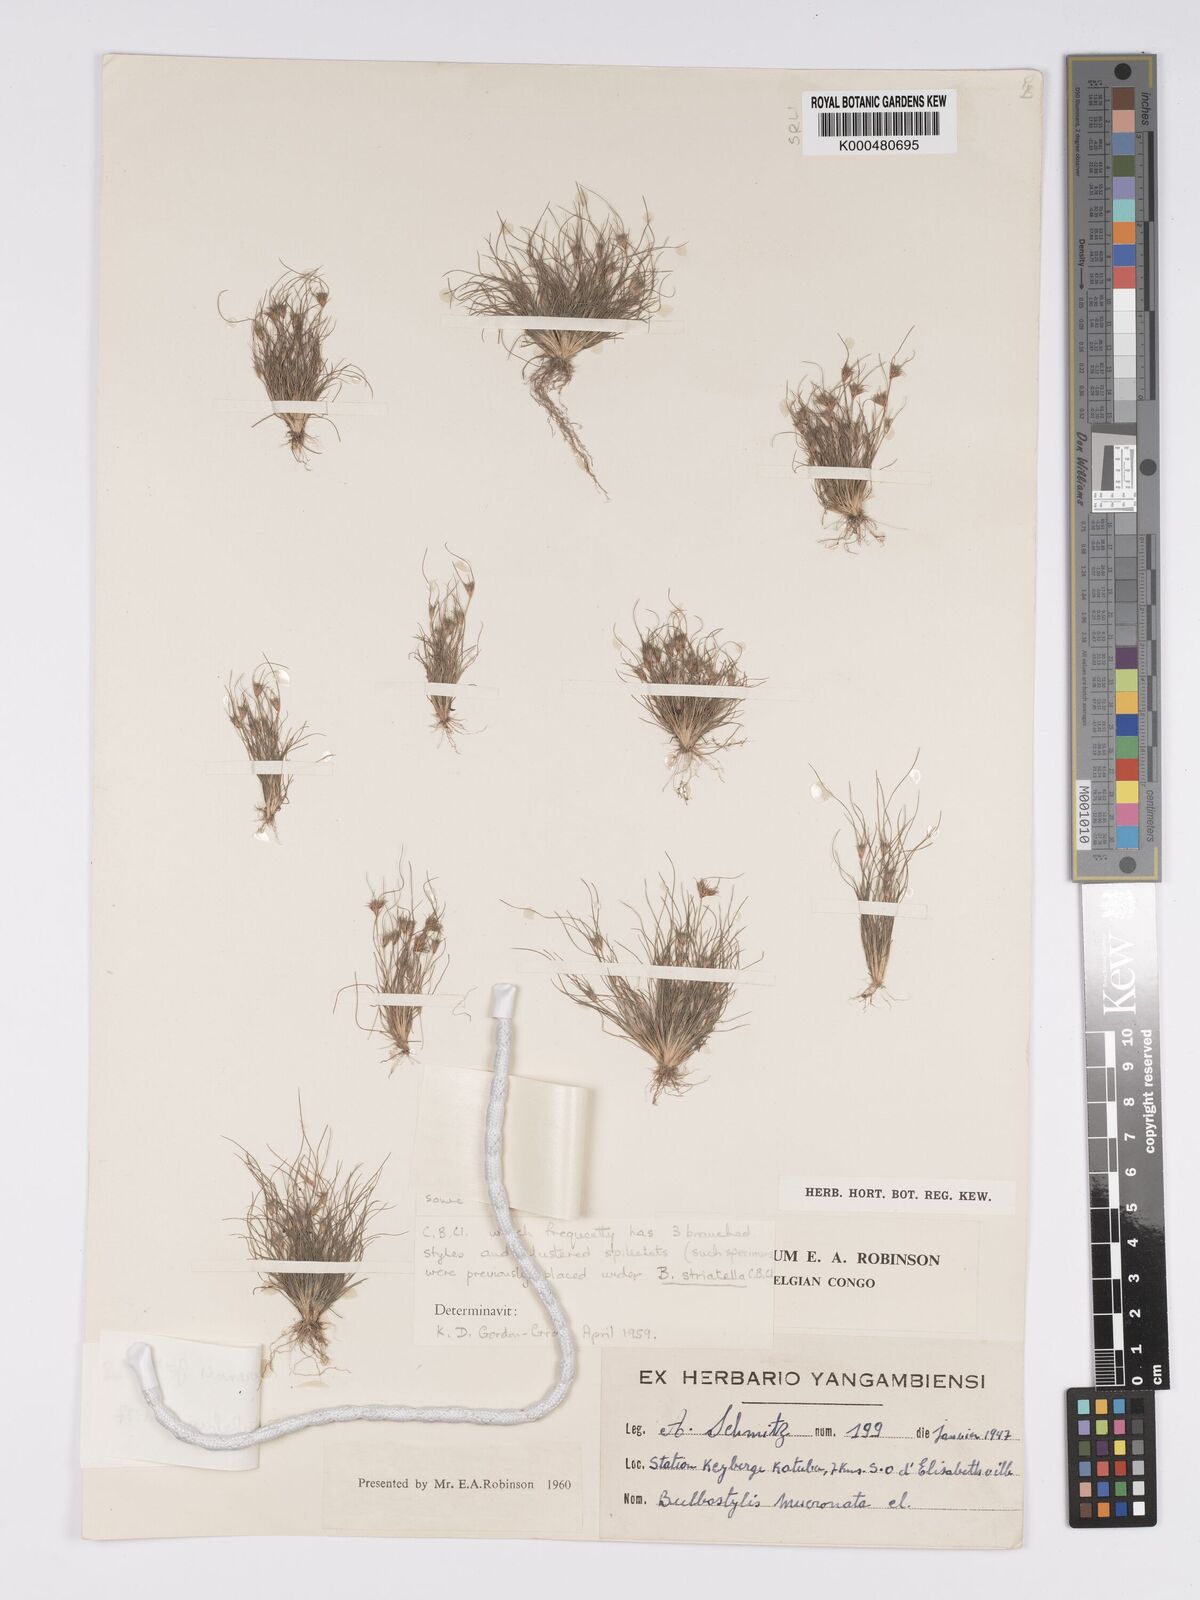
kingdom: Plantae
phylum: Tracheophyta
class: Liliopsida
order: Poales
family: Cyperaceae
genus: Bulbostylis
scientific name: Bulbostylis abbreviata
